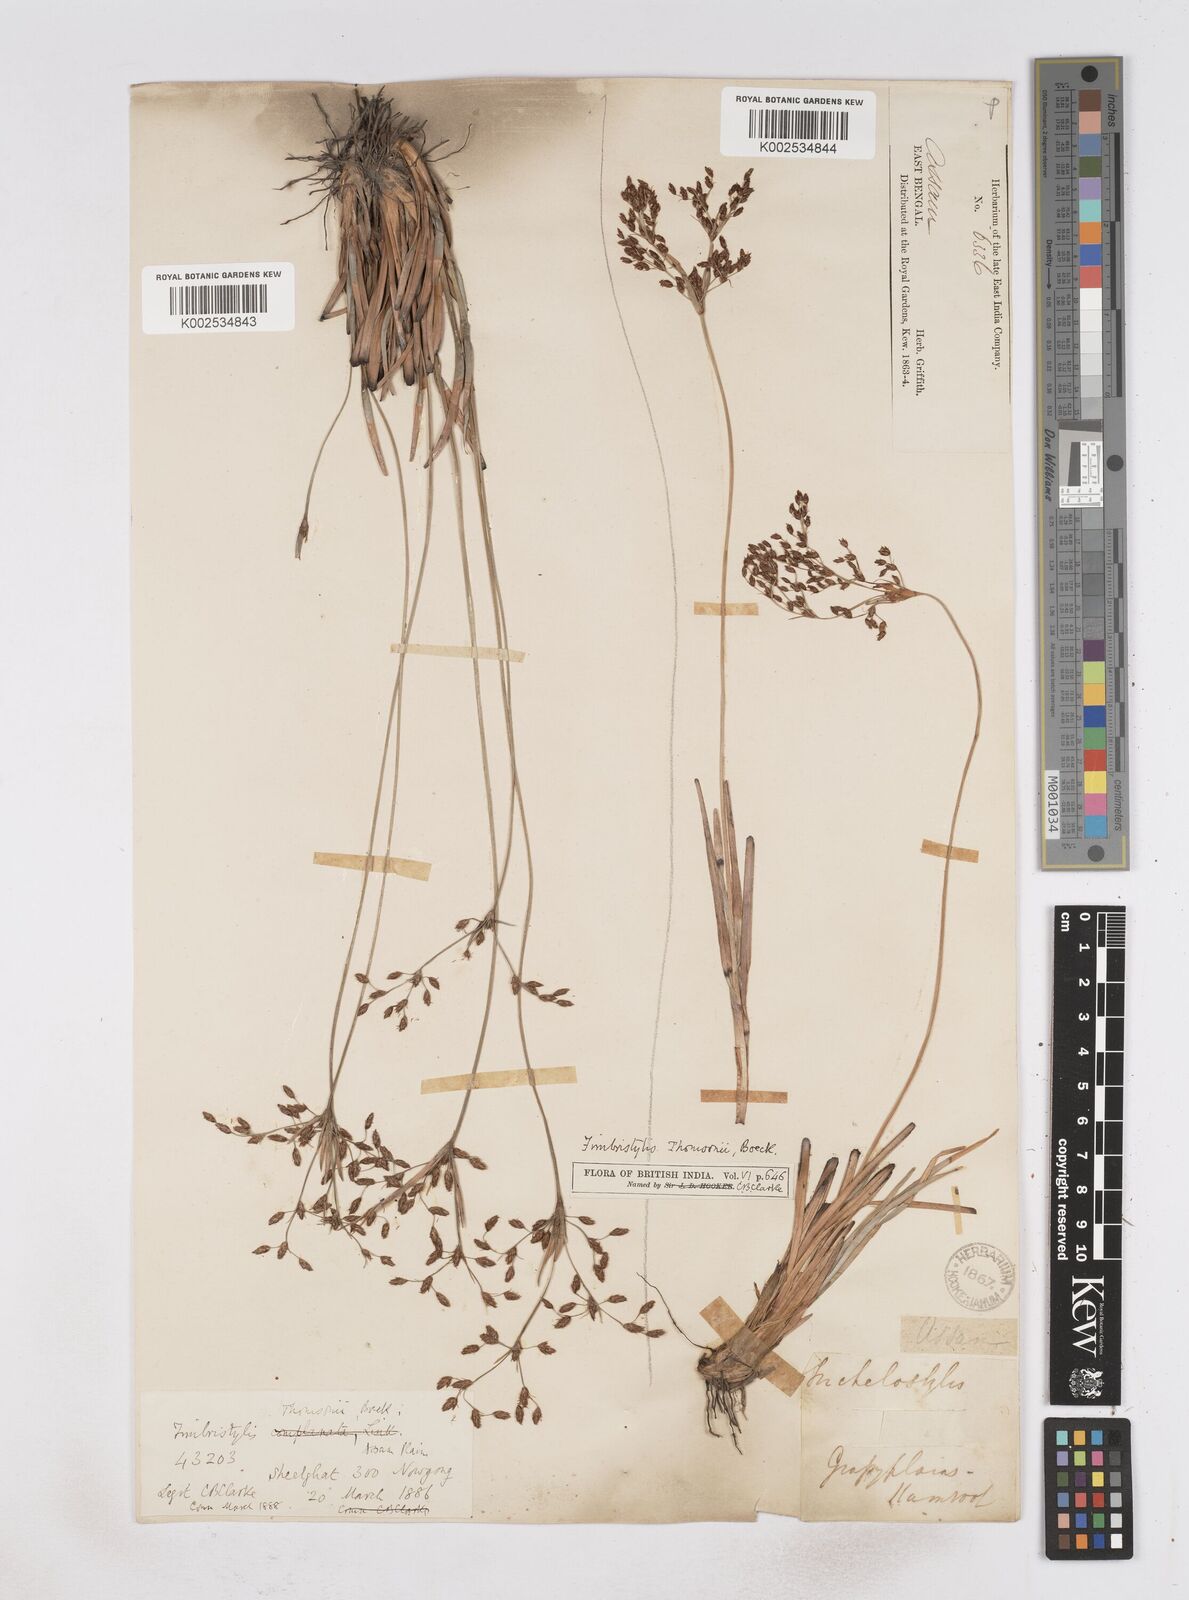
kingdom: Plantae
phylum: Tracheophyta
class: Liliopsida
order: Poales
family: Cyperaceae
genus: Fimbristylis
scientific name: Fimbristylis thomsonii
